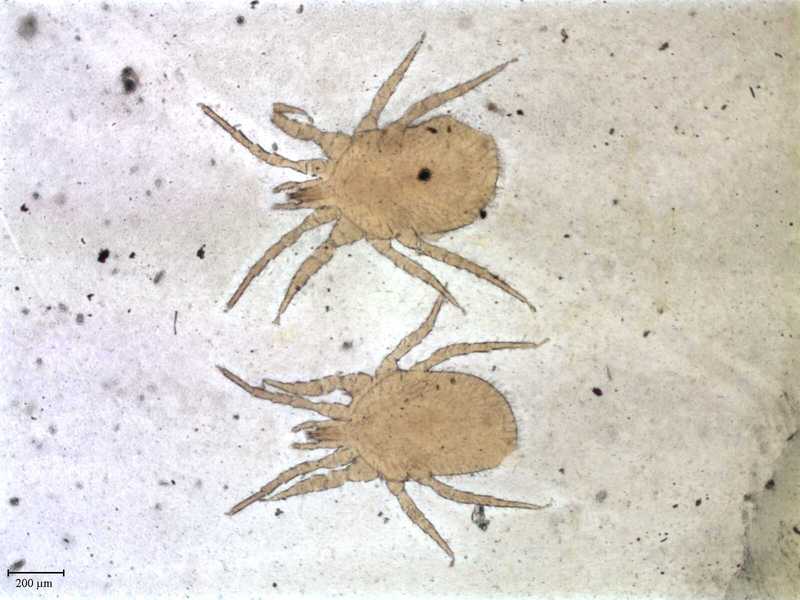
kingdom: Animalia
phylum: Arthropoda
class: Arachnida
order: Mesostigmata
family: Macronyssidae
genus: Chiroptonyssus
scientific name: Chiroptonyssus venezolanus
